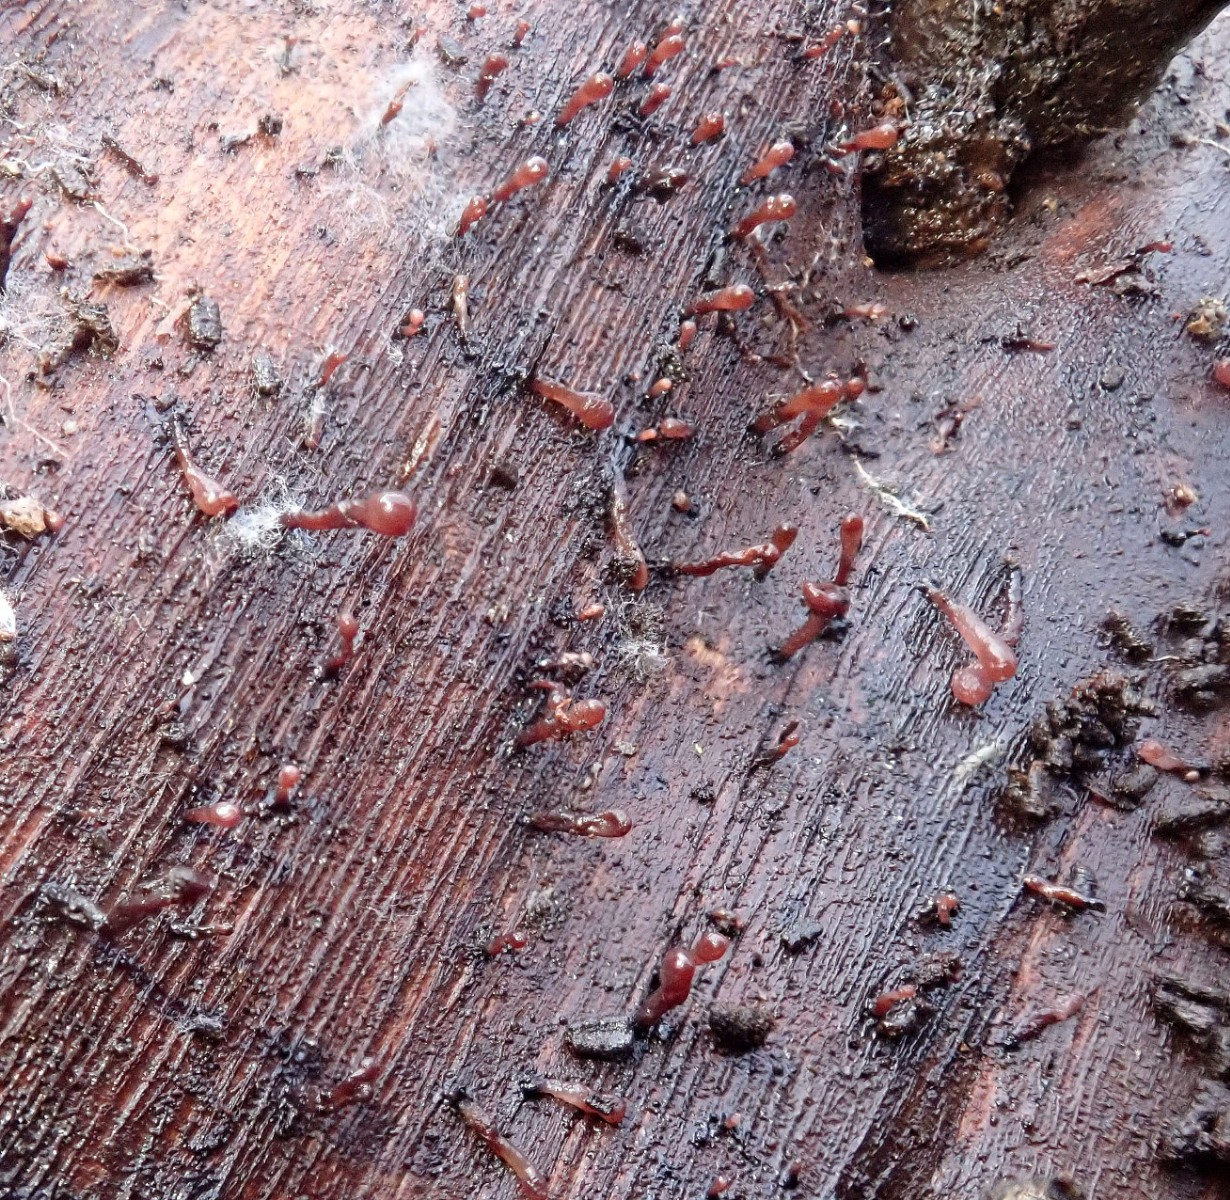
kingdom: Fungi
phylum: Ascomycota
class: Leotiomycetes
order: Helotiales
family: Gelatinodiscaceae
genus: Ascocoryne
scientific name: Ascocoryne albida
